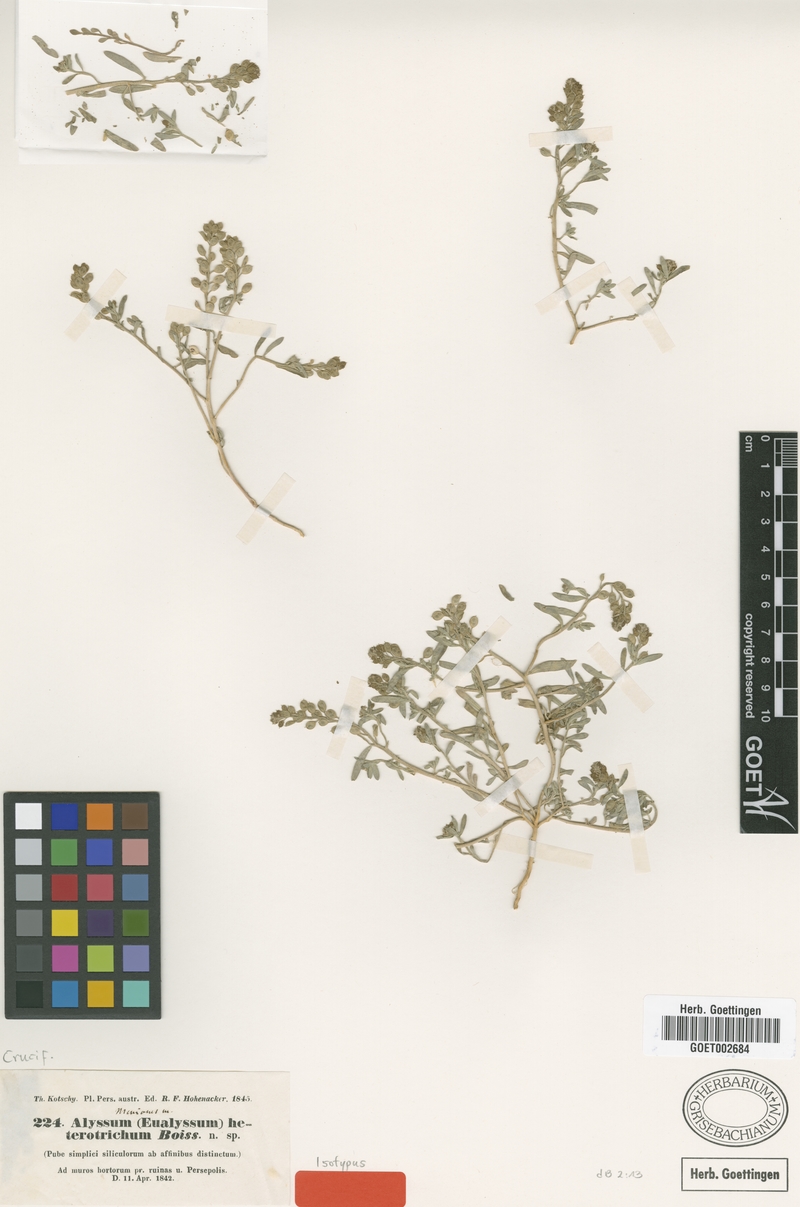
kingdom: Plantae
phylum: Tracheophyta
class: Magnoliopsida
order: Brassicales
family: Brassicaceae
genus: Meniocus
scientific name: Meniocus heterotrichus
